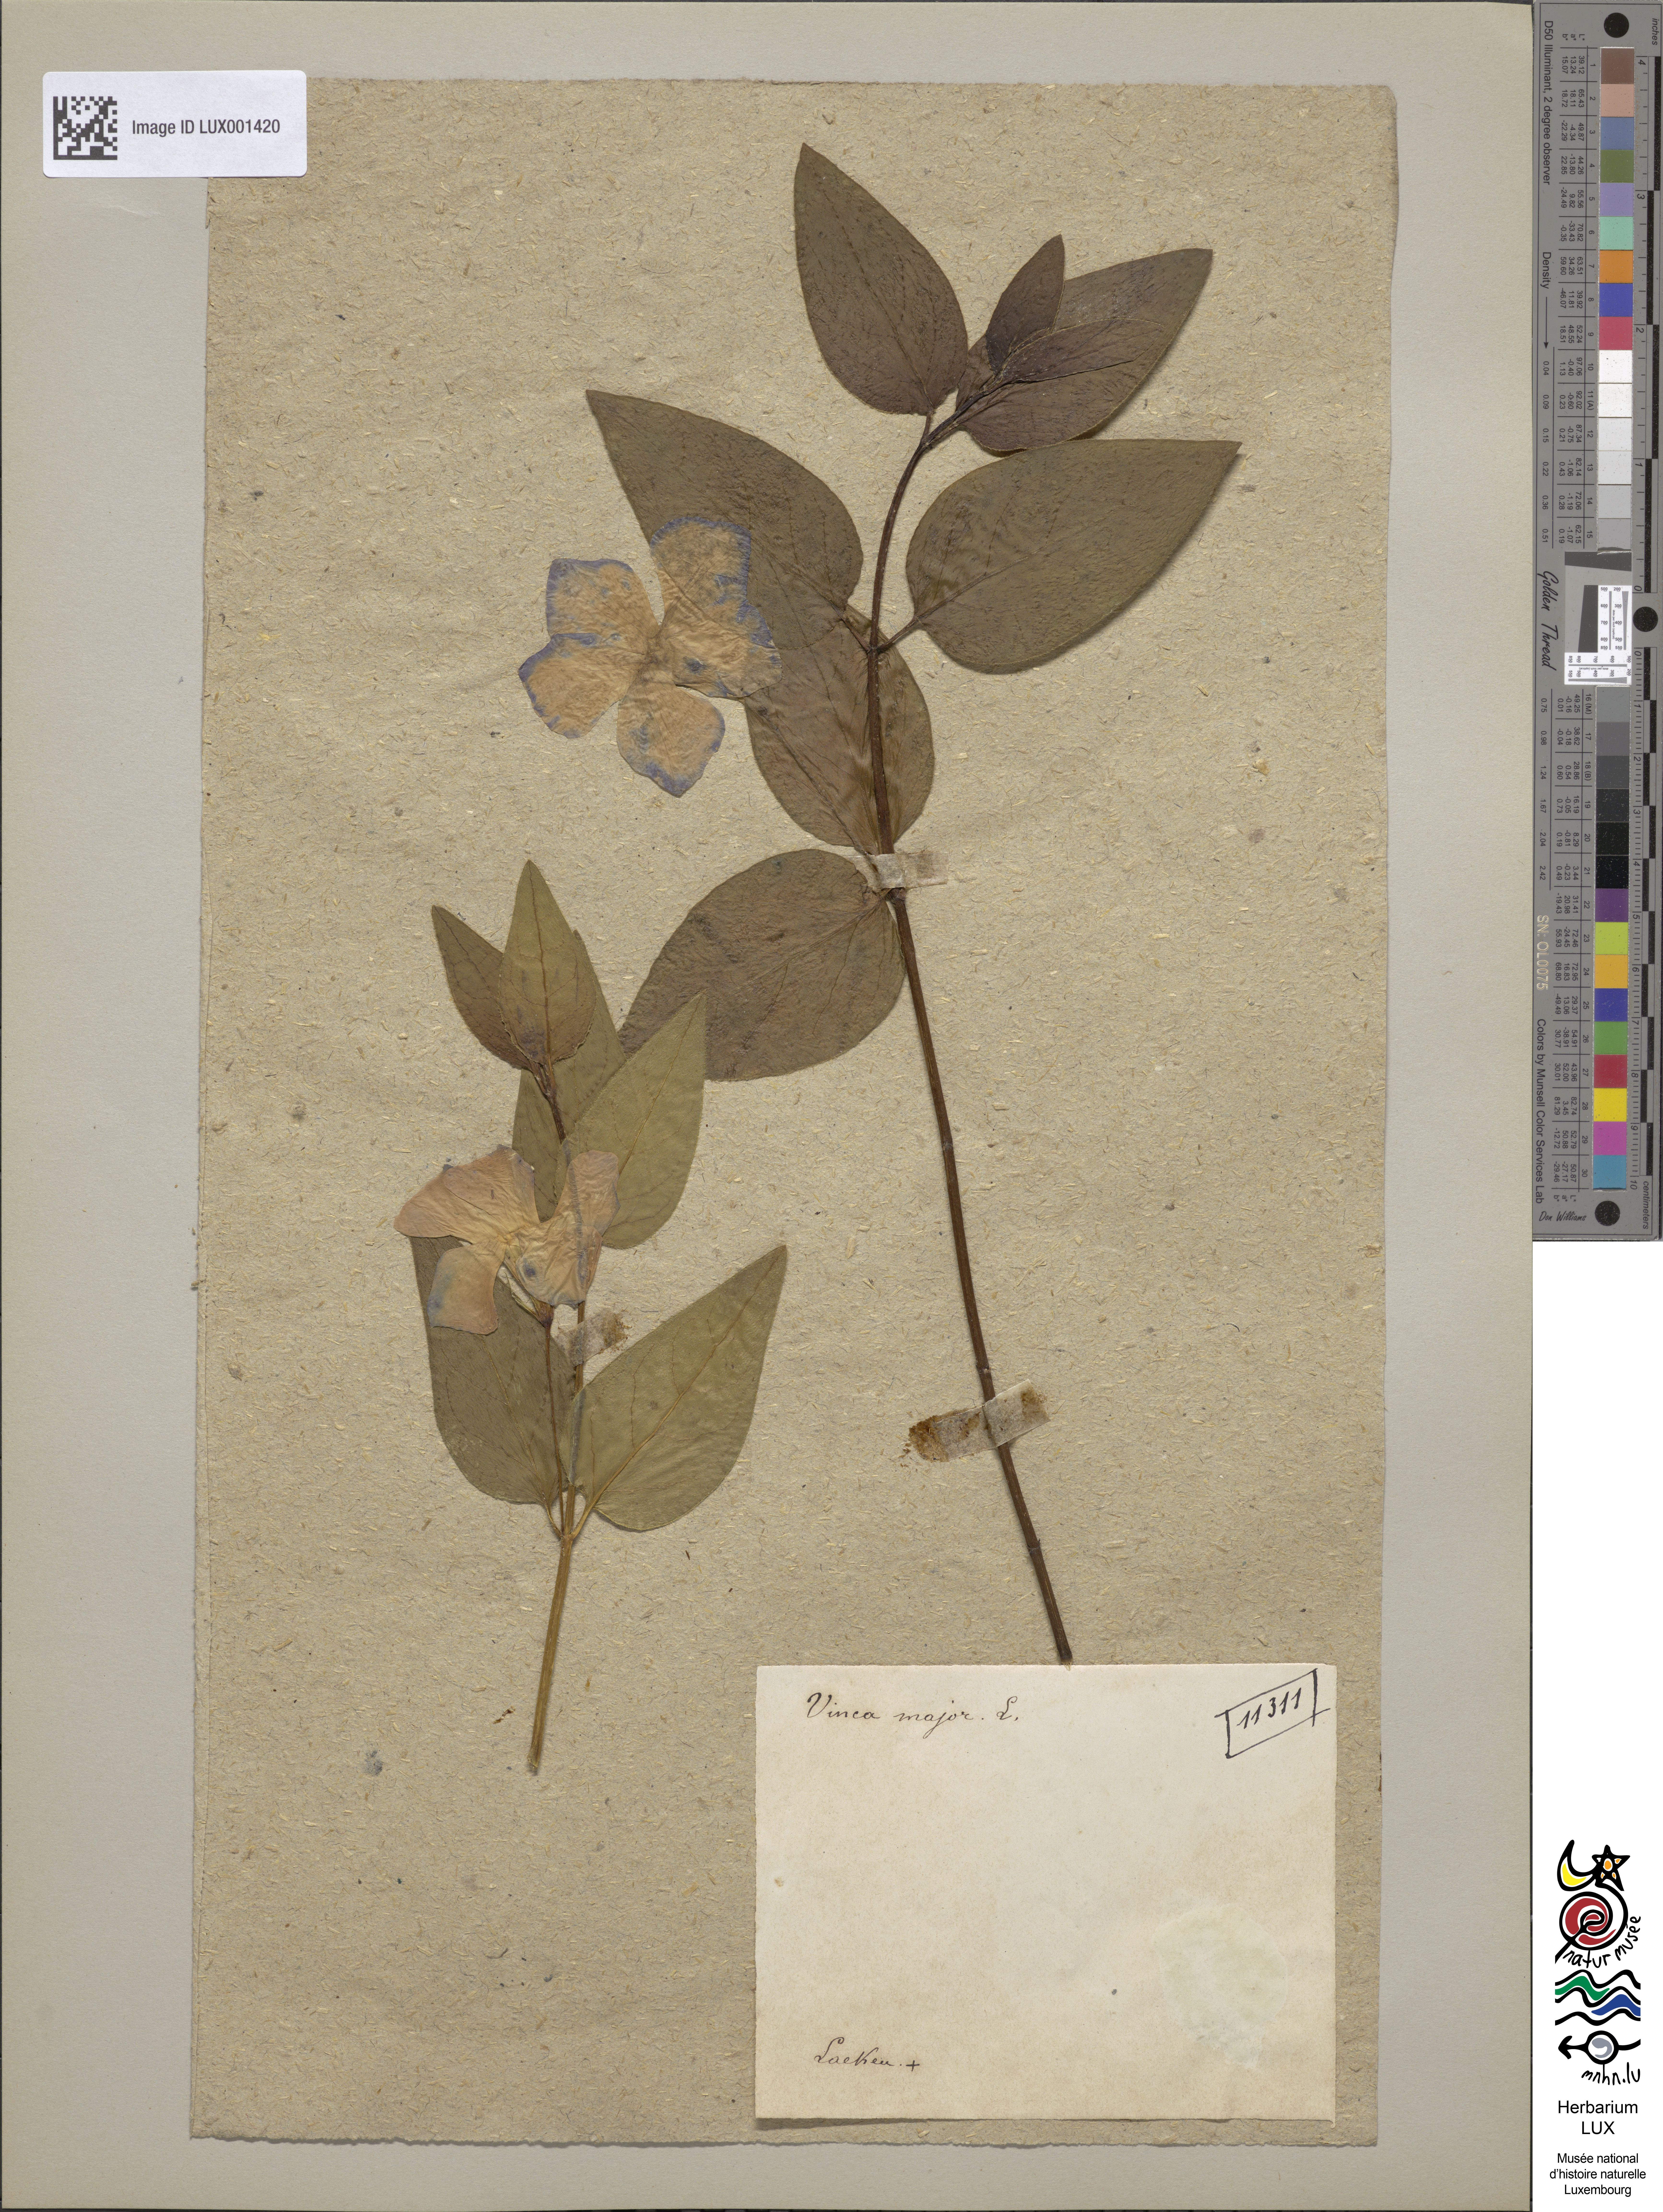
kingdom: Plantae
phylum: Tracheophyta
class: Magnoliopsida
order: Gentianales
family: Apocynaceae
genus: Vinca
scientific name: Vinca major
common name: Greater periwinkle
